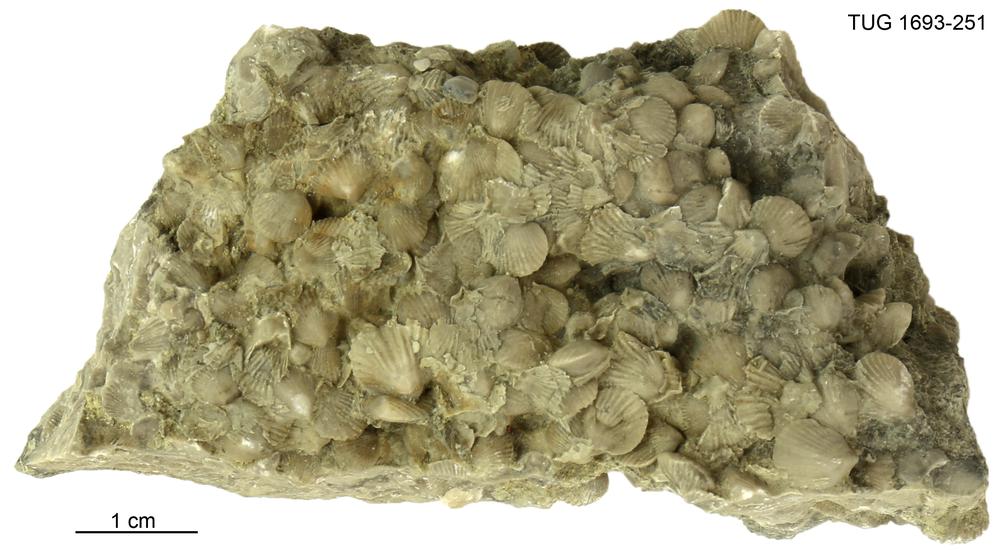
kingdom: Animalia
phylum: Brachiopoda
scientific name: Brachiopoda
